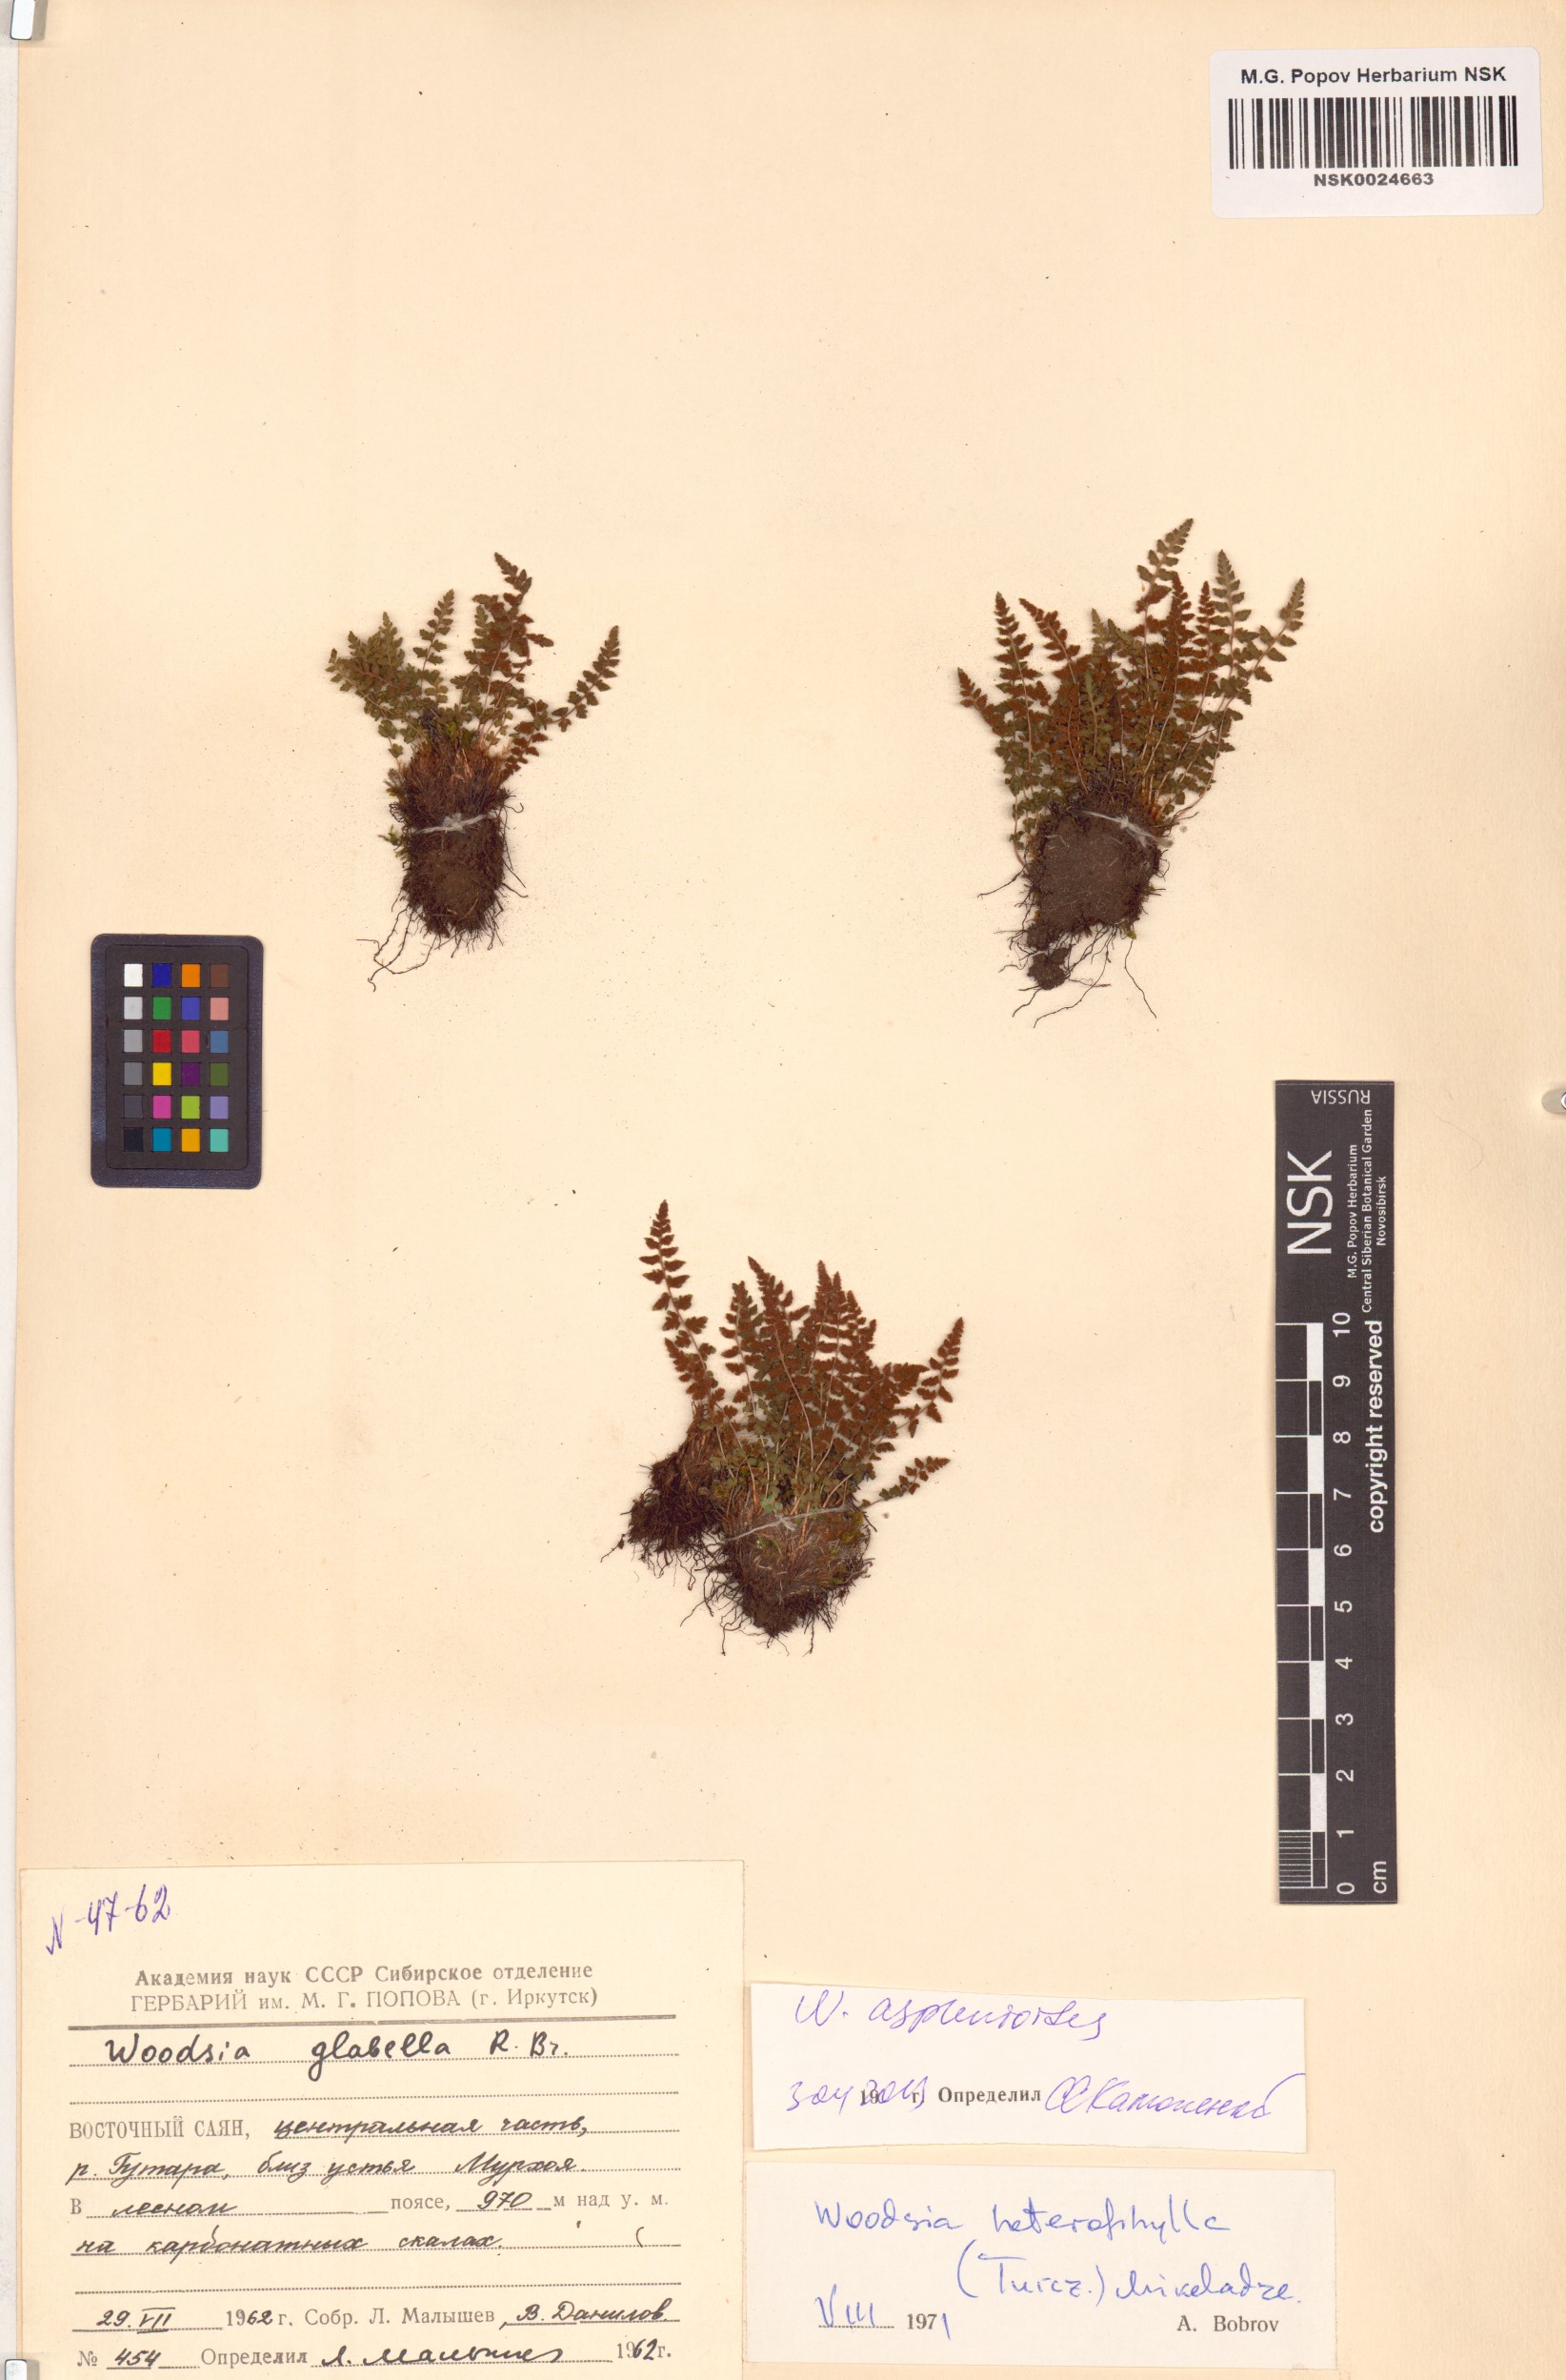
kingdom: Plantae
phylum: Tracheophyta
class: Polypodiopsida
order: Polypodiales
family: Woodsiaceae
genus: Woodsia
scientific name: Woodsia glabella
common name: Smooth woodsia
